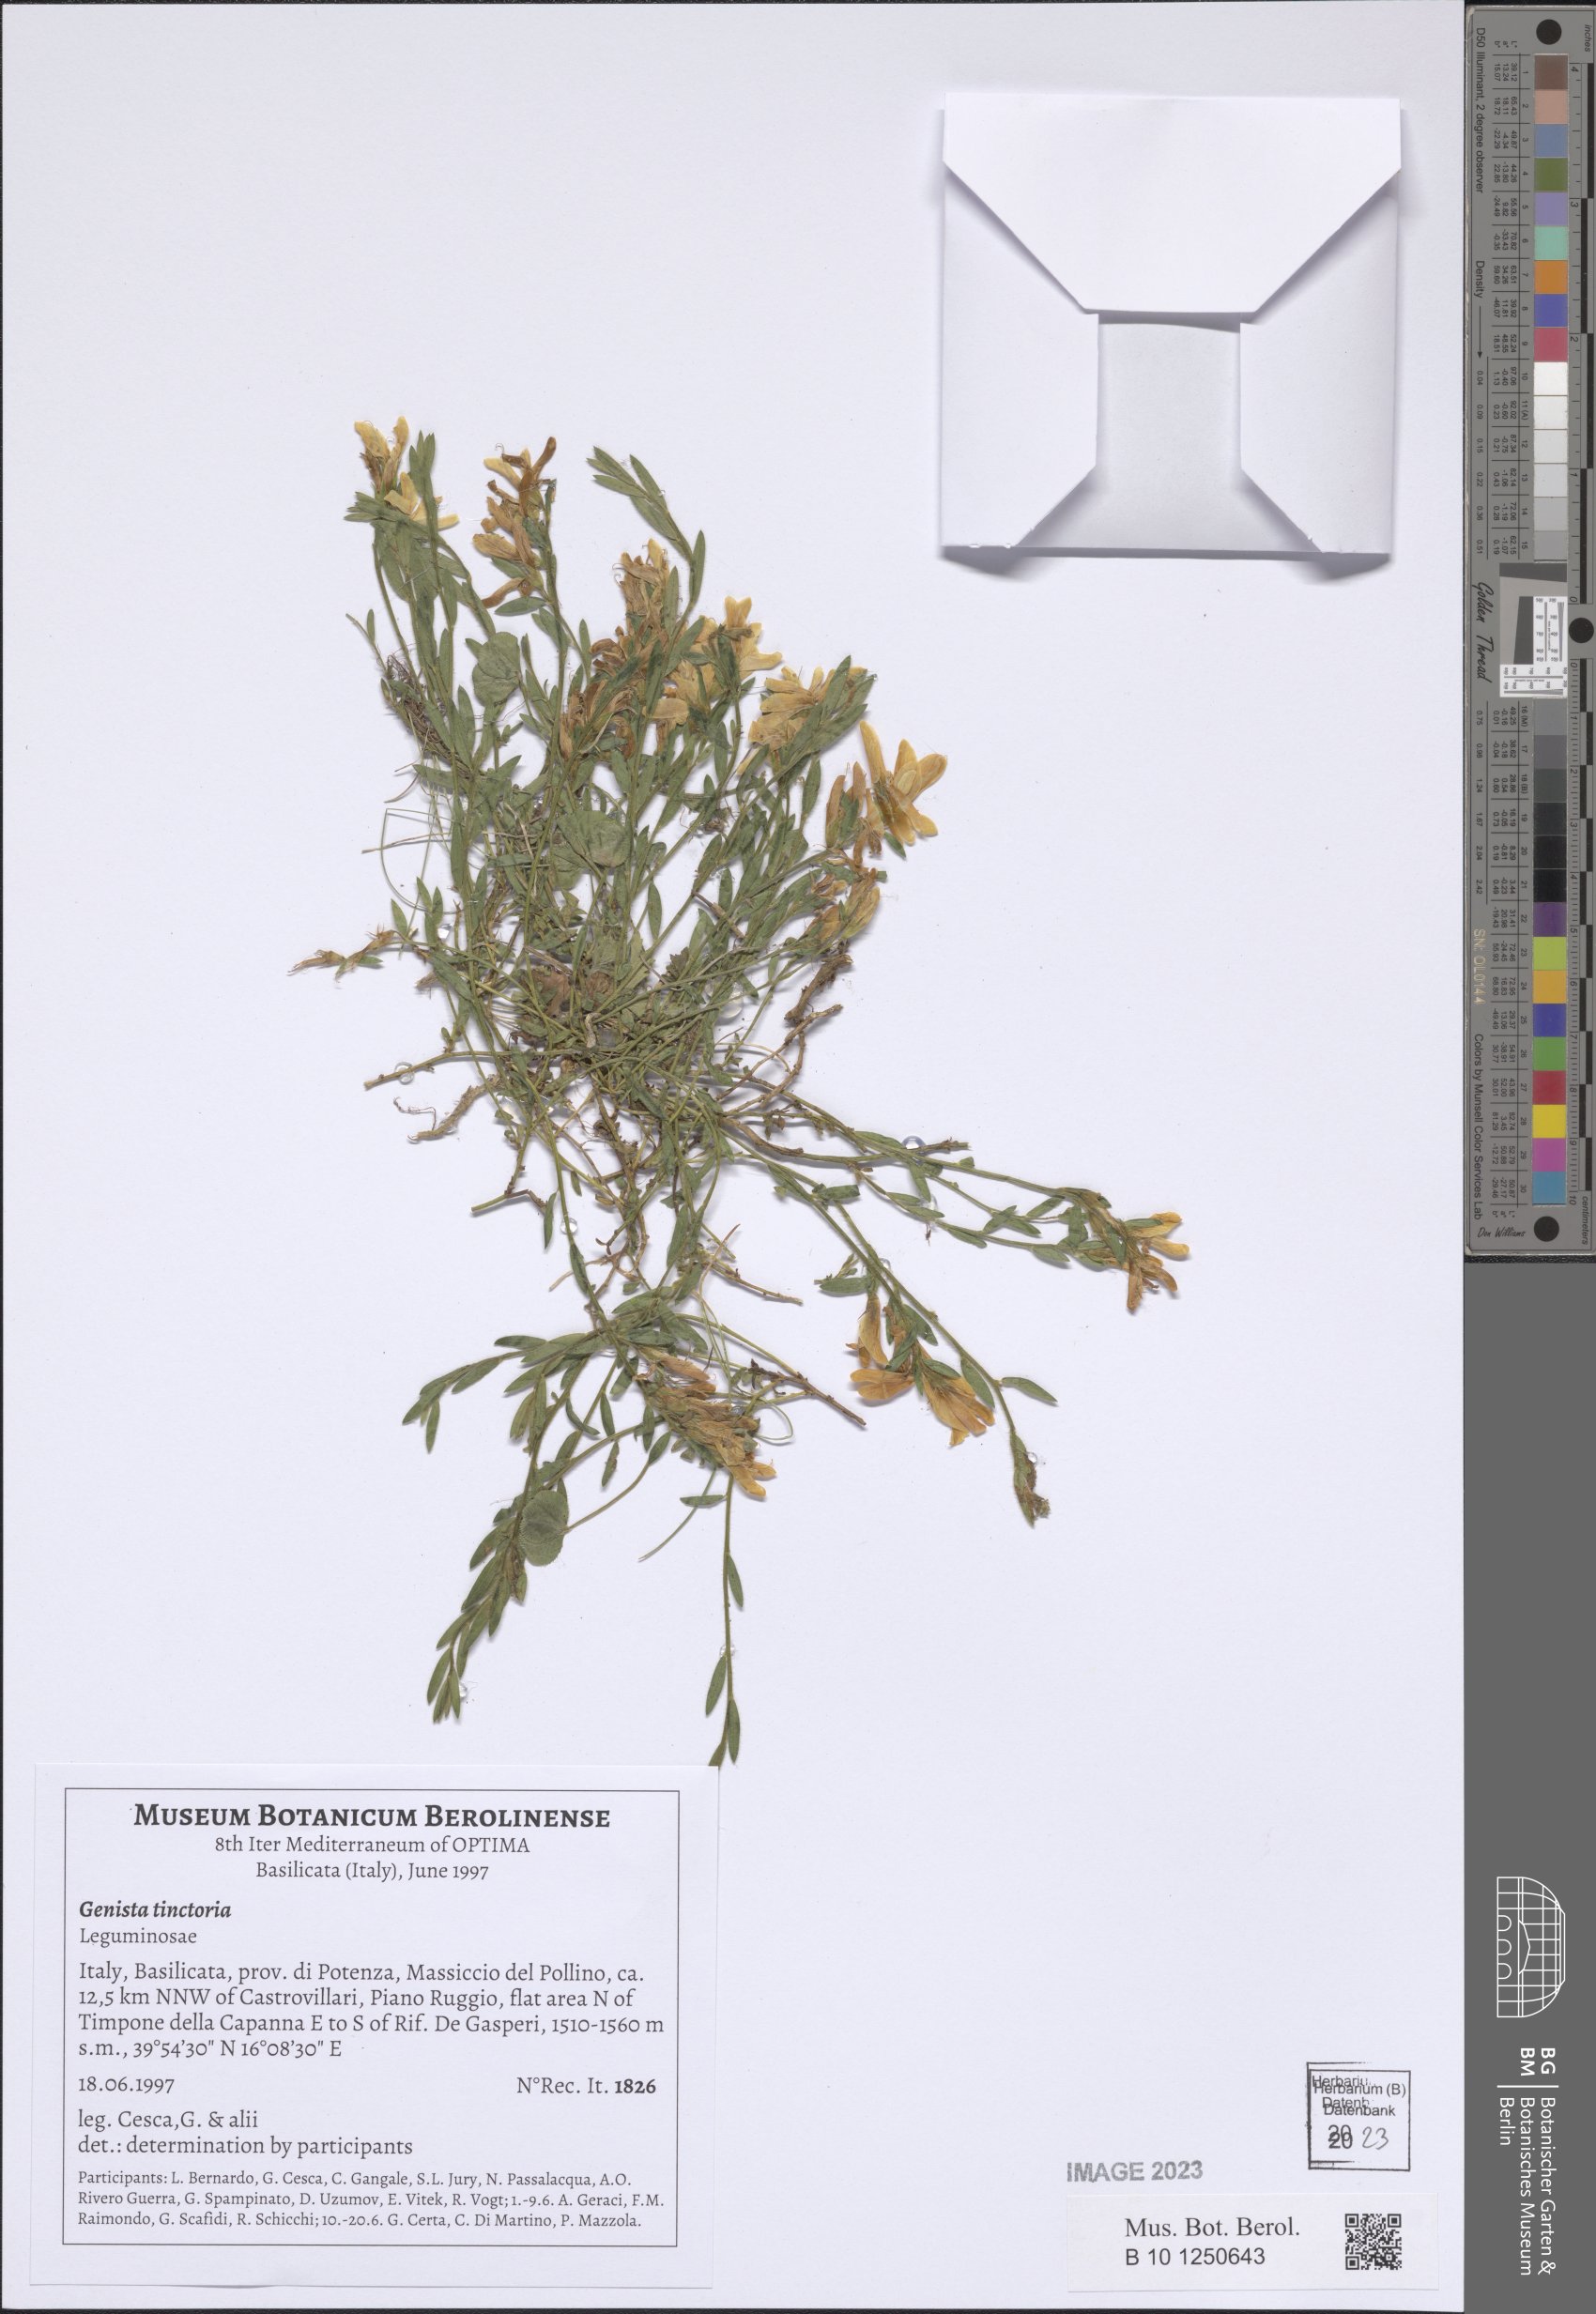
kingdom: Plantae
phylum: Tracheophyta
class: Magnoliopsida
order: Fabales
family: Fabaceae
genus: Genista
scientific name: Genista tinctoria
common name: Dyer's greenweed
